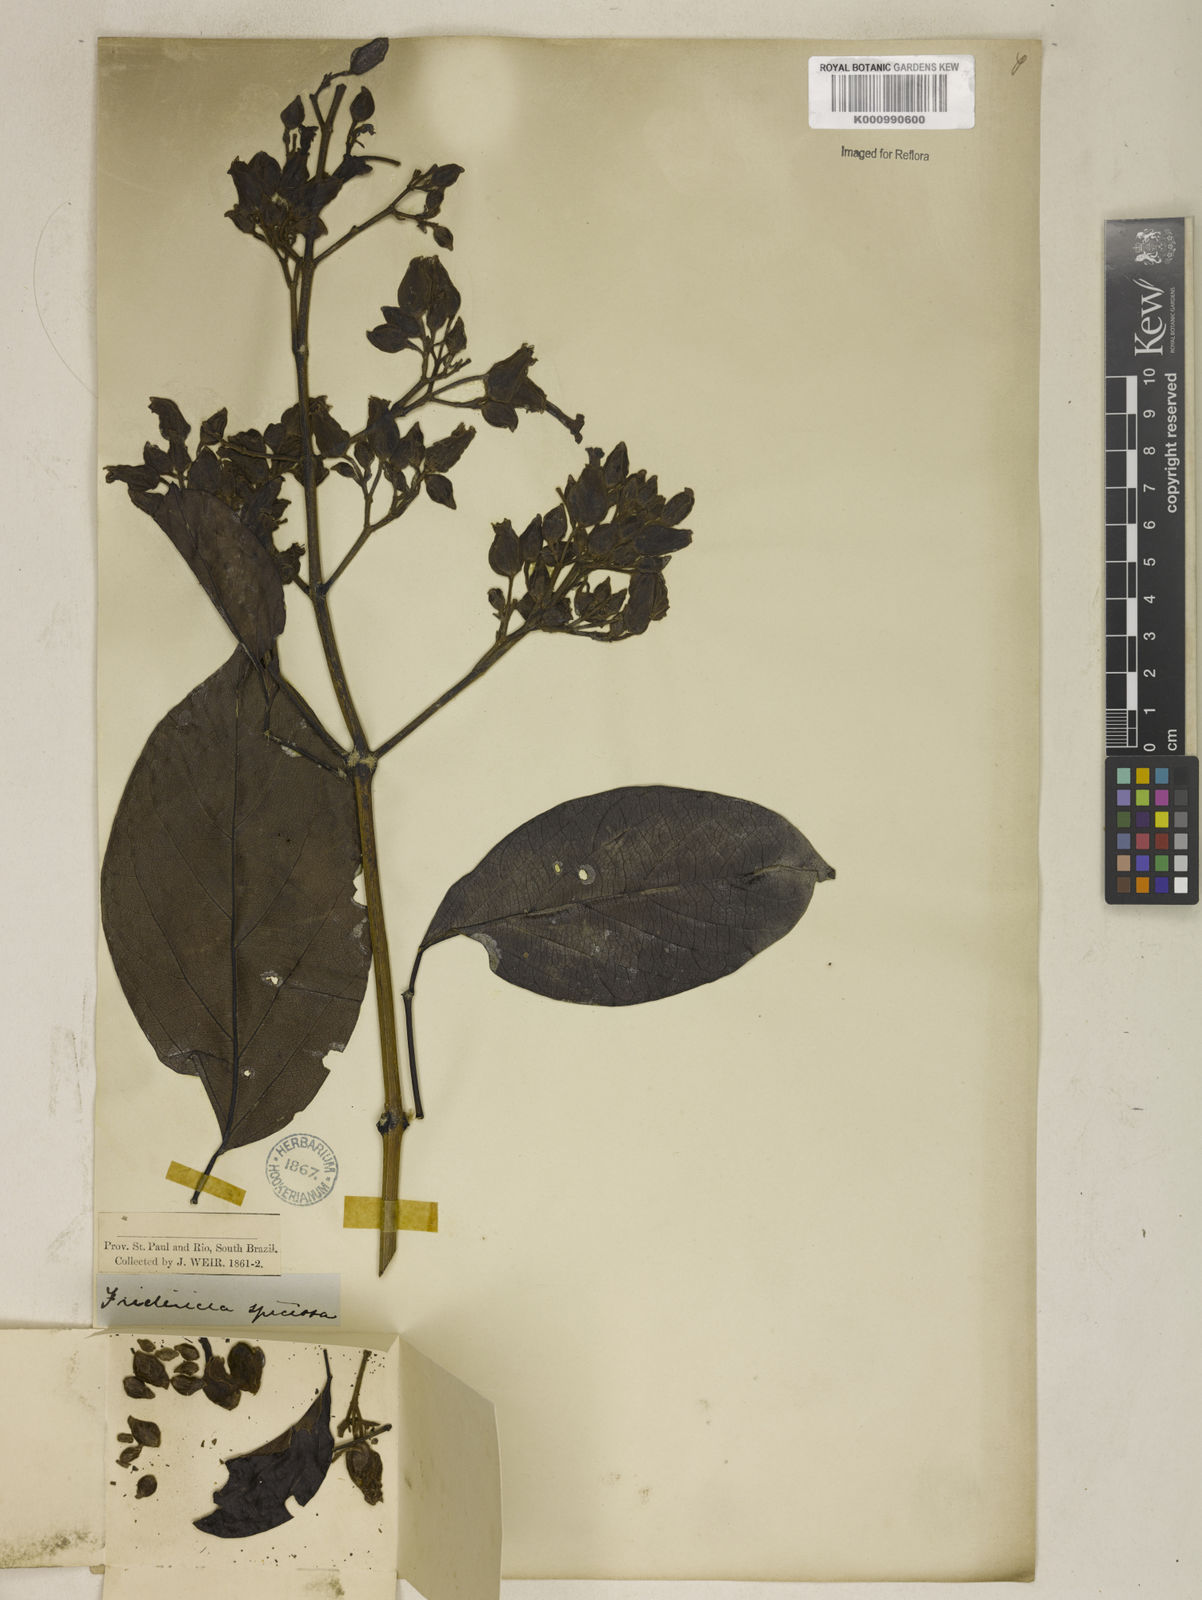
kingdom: Plantae
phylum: Tracheophyta
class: Magnoliopsida
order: Lamiales
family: Bignoniaceae
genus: Fridericia
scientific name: Fridericia speciosa
